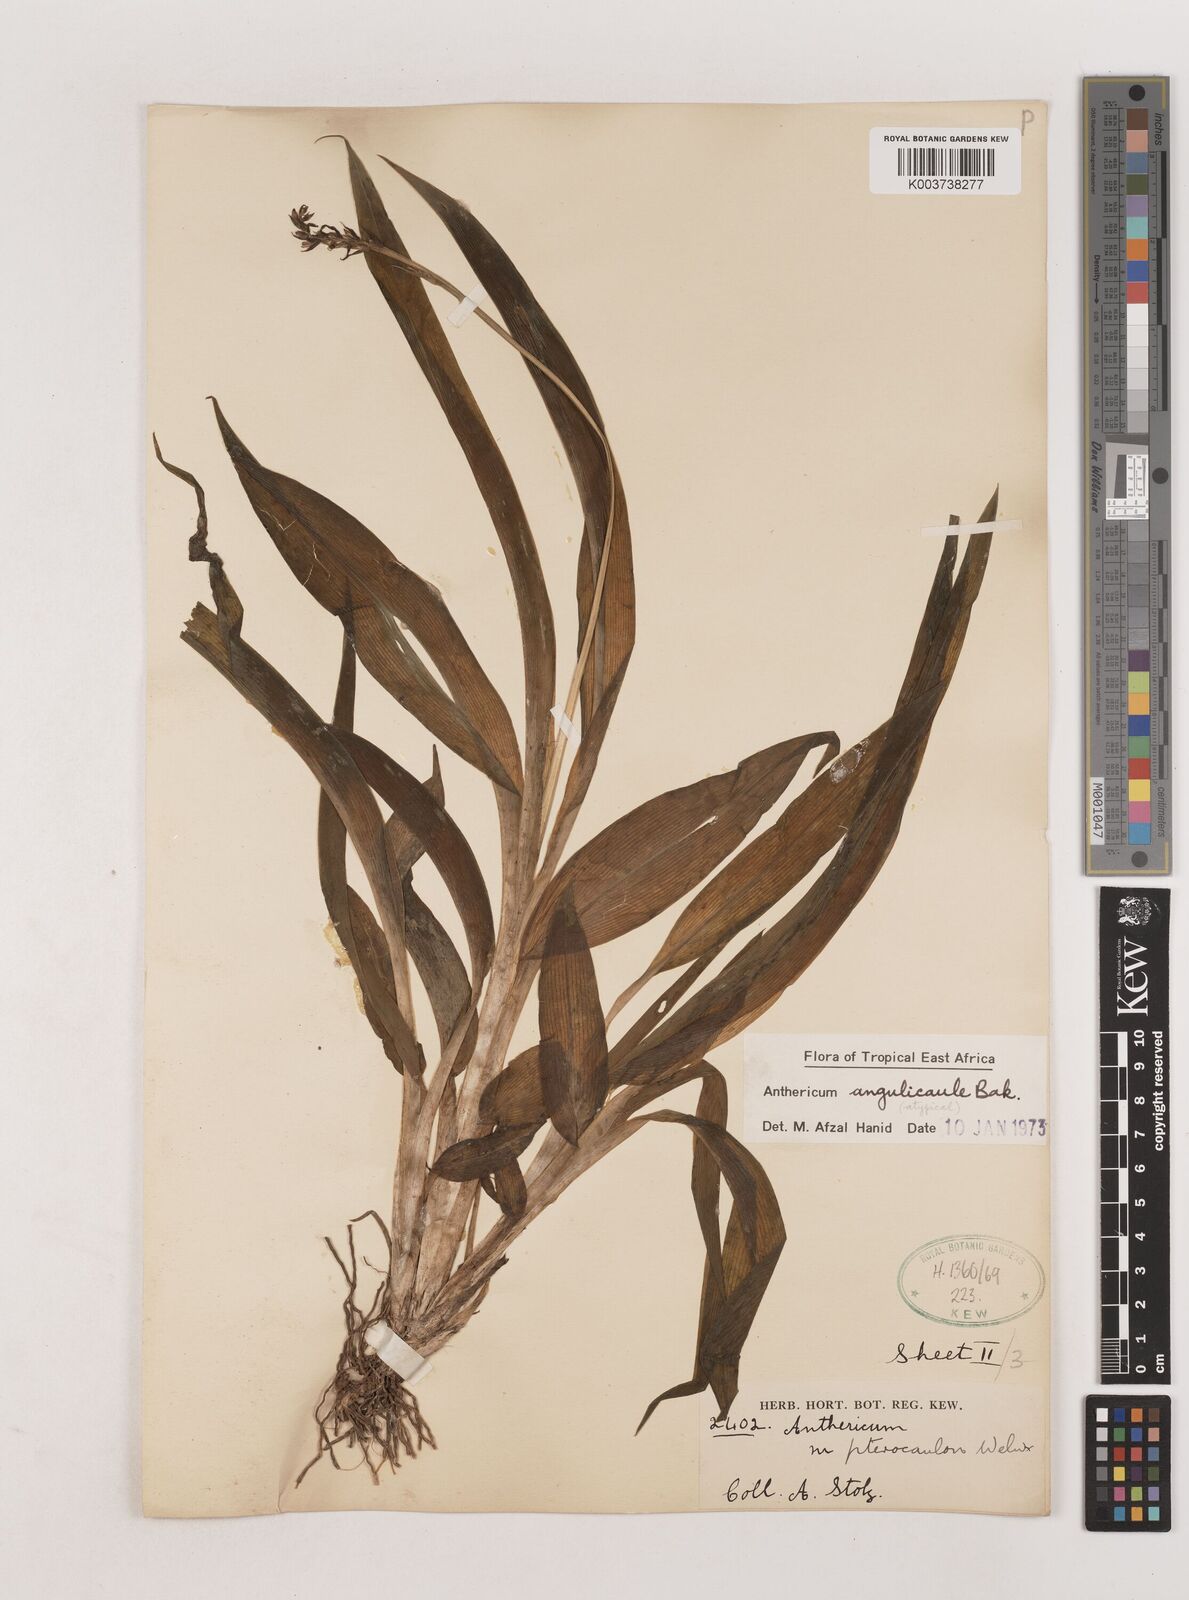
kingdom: Plantae
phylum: Tracheophyta
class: Liliopsida
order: Asparagales
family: Asparagaceae
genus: Chlorophytum
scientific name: Chlorophytum sphacelatum
